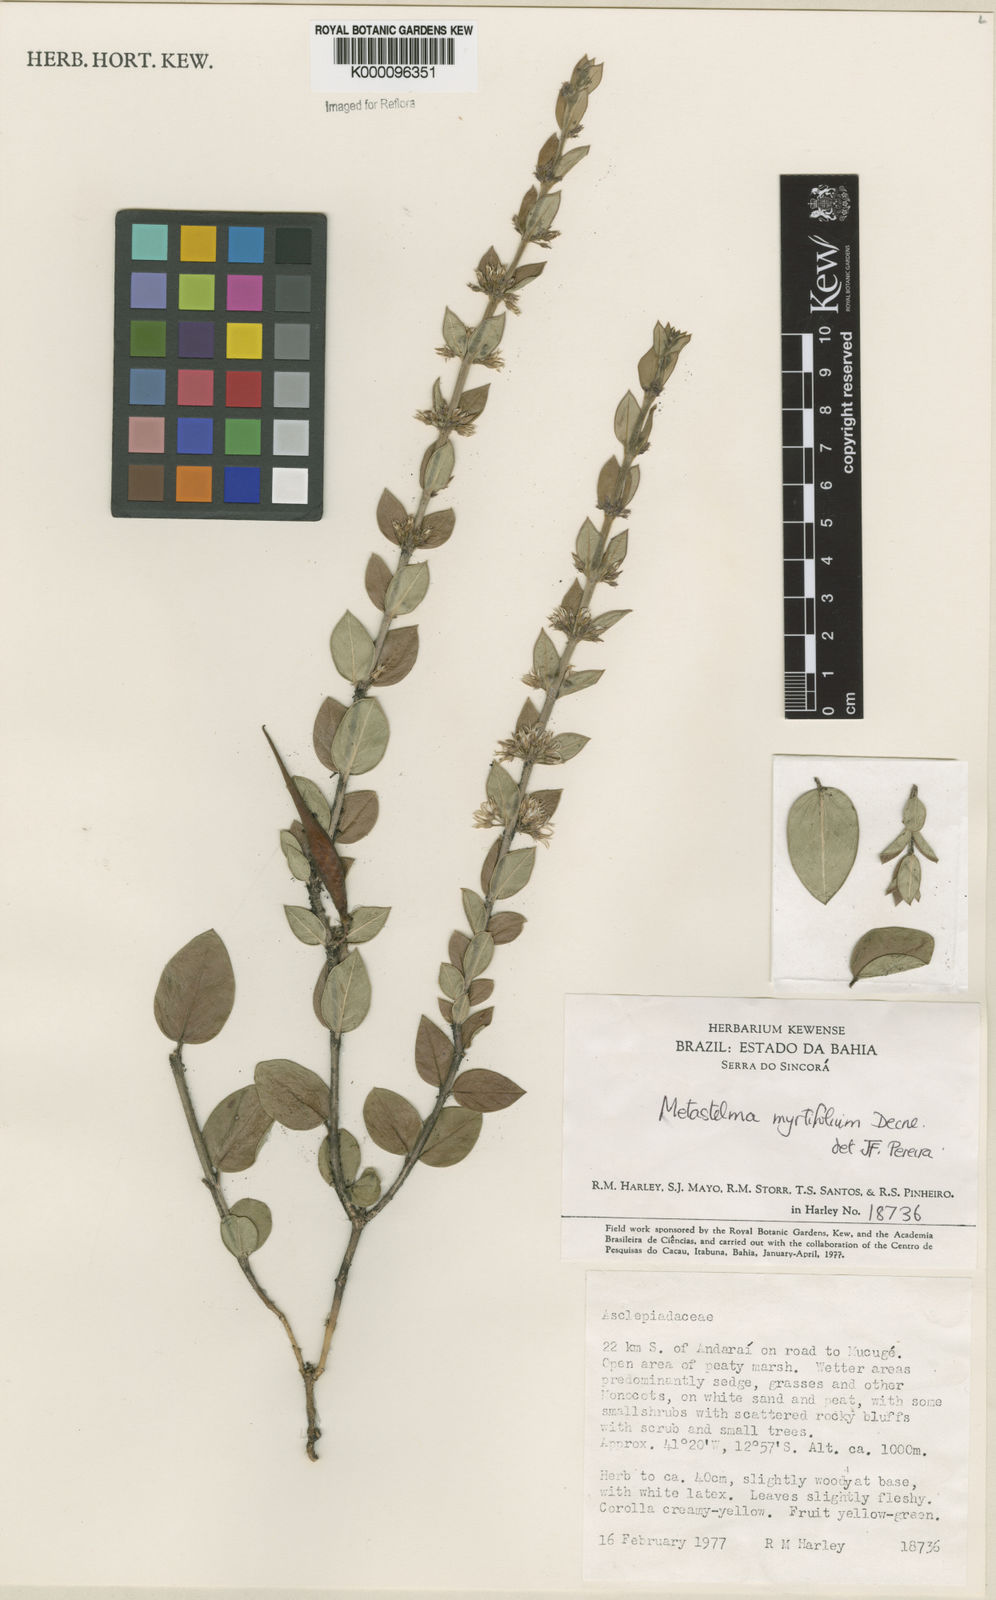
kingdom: Plantae
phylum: Tracheophyta
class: Magnoliopsida
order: Gentianales
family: Apocynaceae
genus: Metastelma
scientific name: Metastelma myrtifolium
